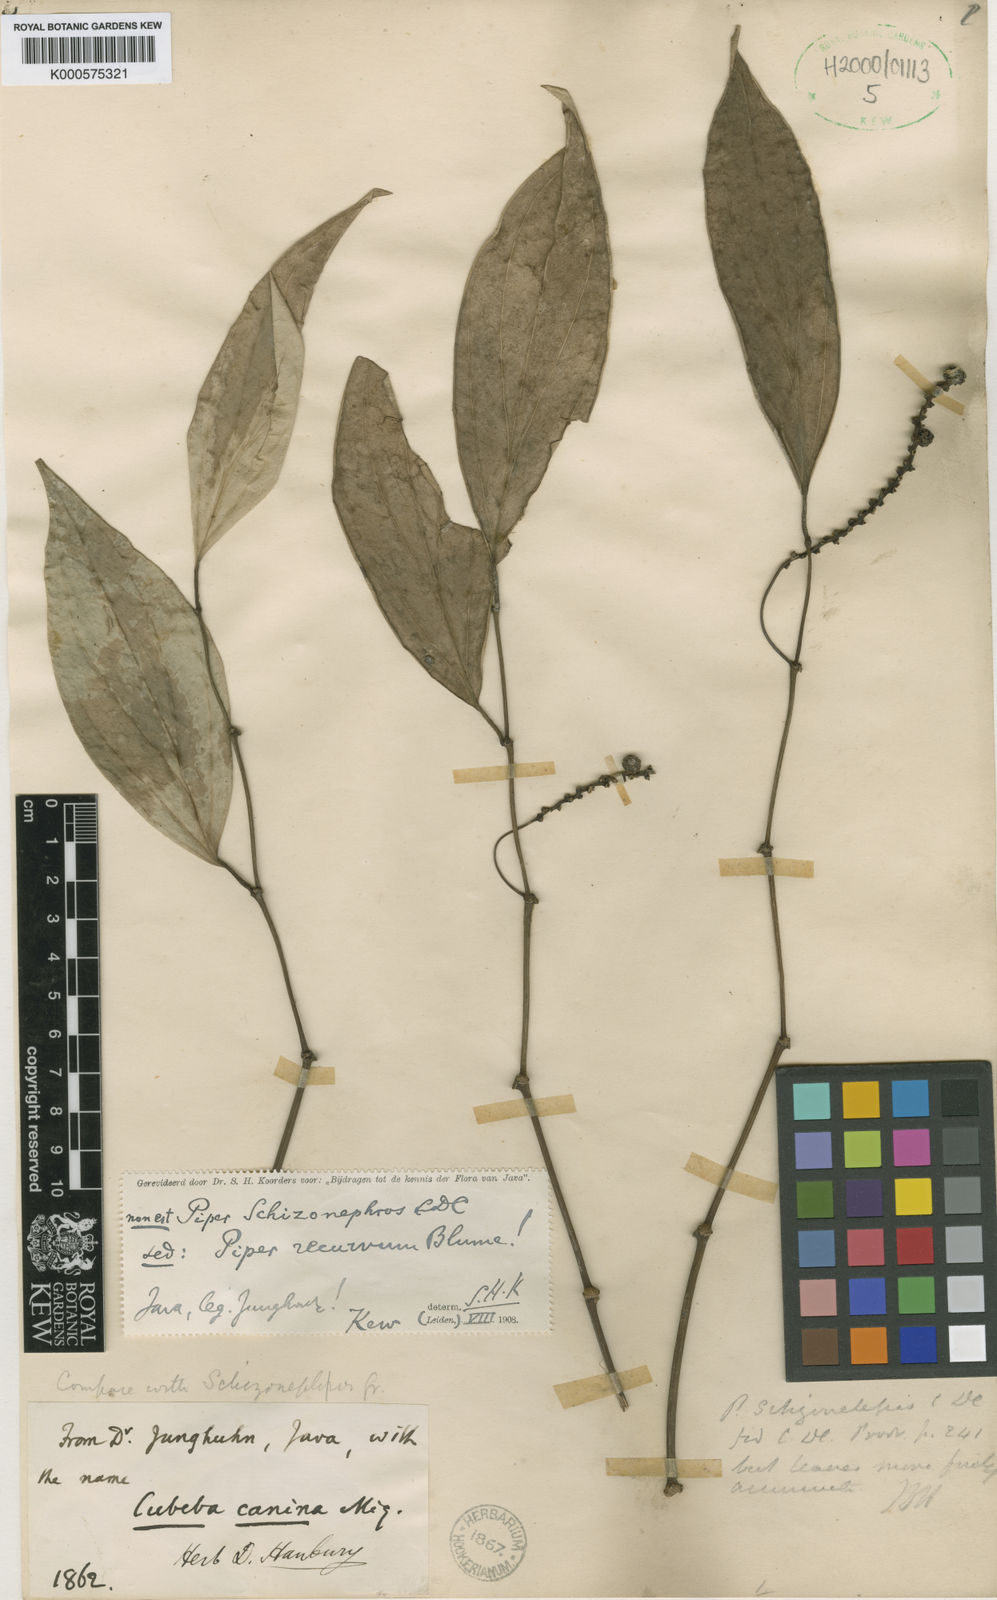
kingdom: Plantae
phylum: Tracheophyta
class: Magnoliopsida
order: Piperales
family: Piperaceae
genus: Piper
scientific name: Piper baccatum
